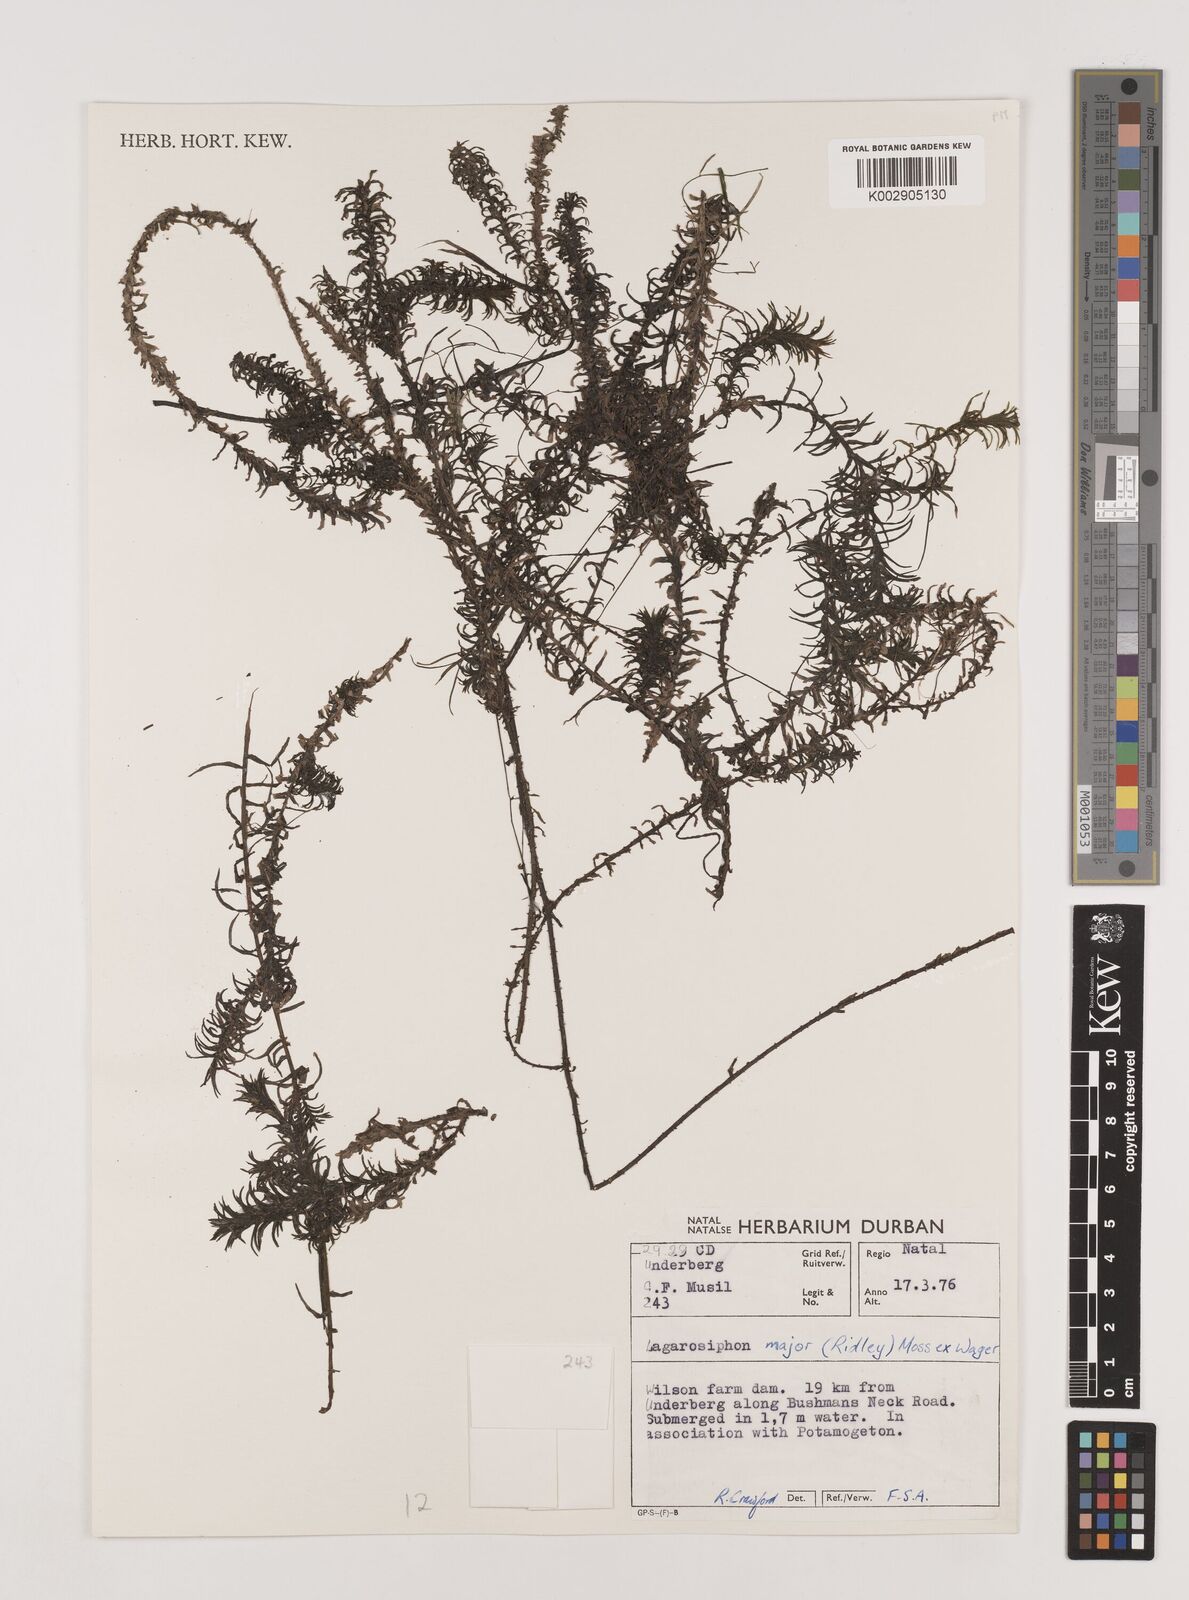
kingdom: Plantae
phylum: Tracheophyta
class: Liliopsida
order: Alismatales
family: Hydrocharitaceae
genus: Lagarosiphon
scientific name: Lagarosiphon major
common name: Curly waterweed
